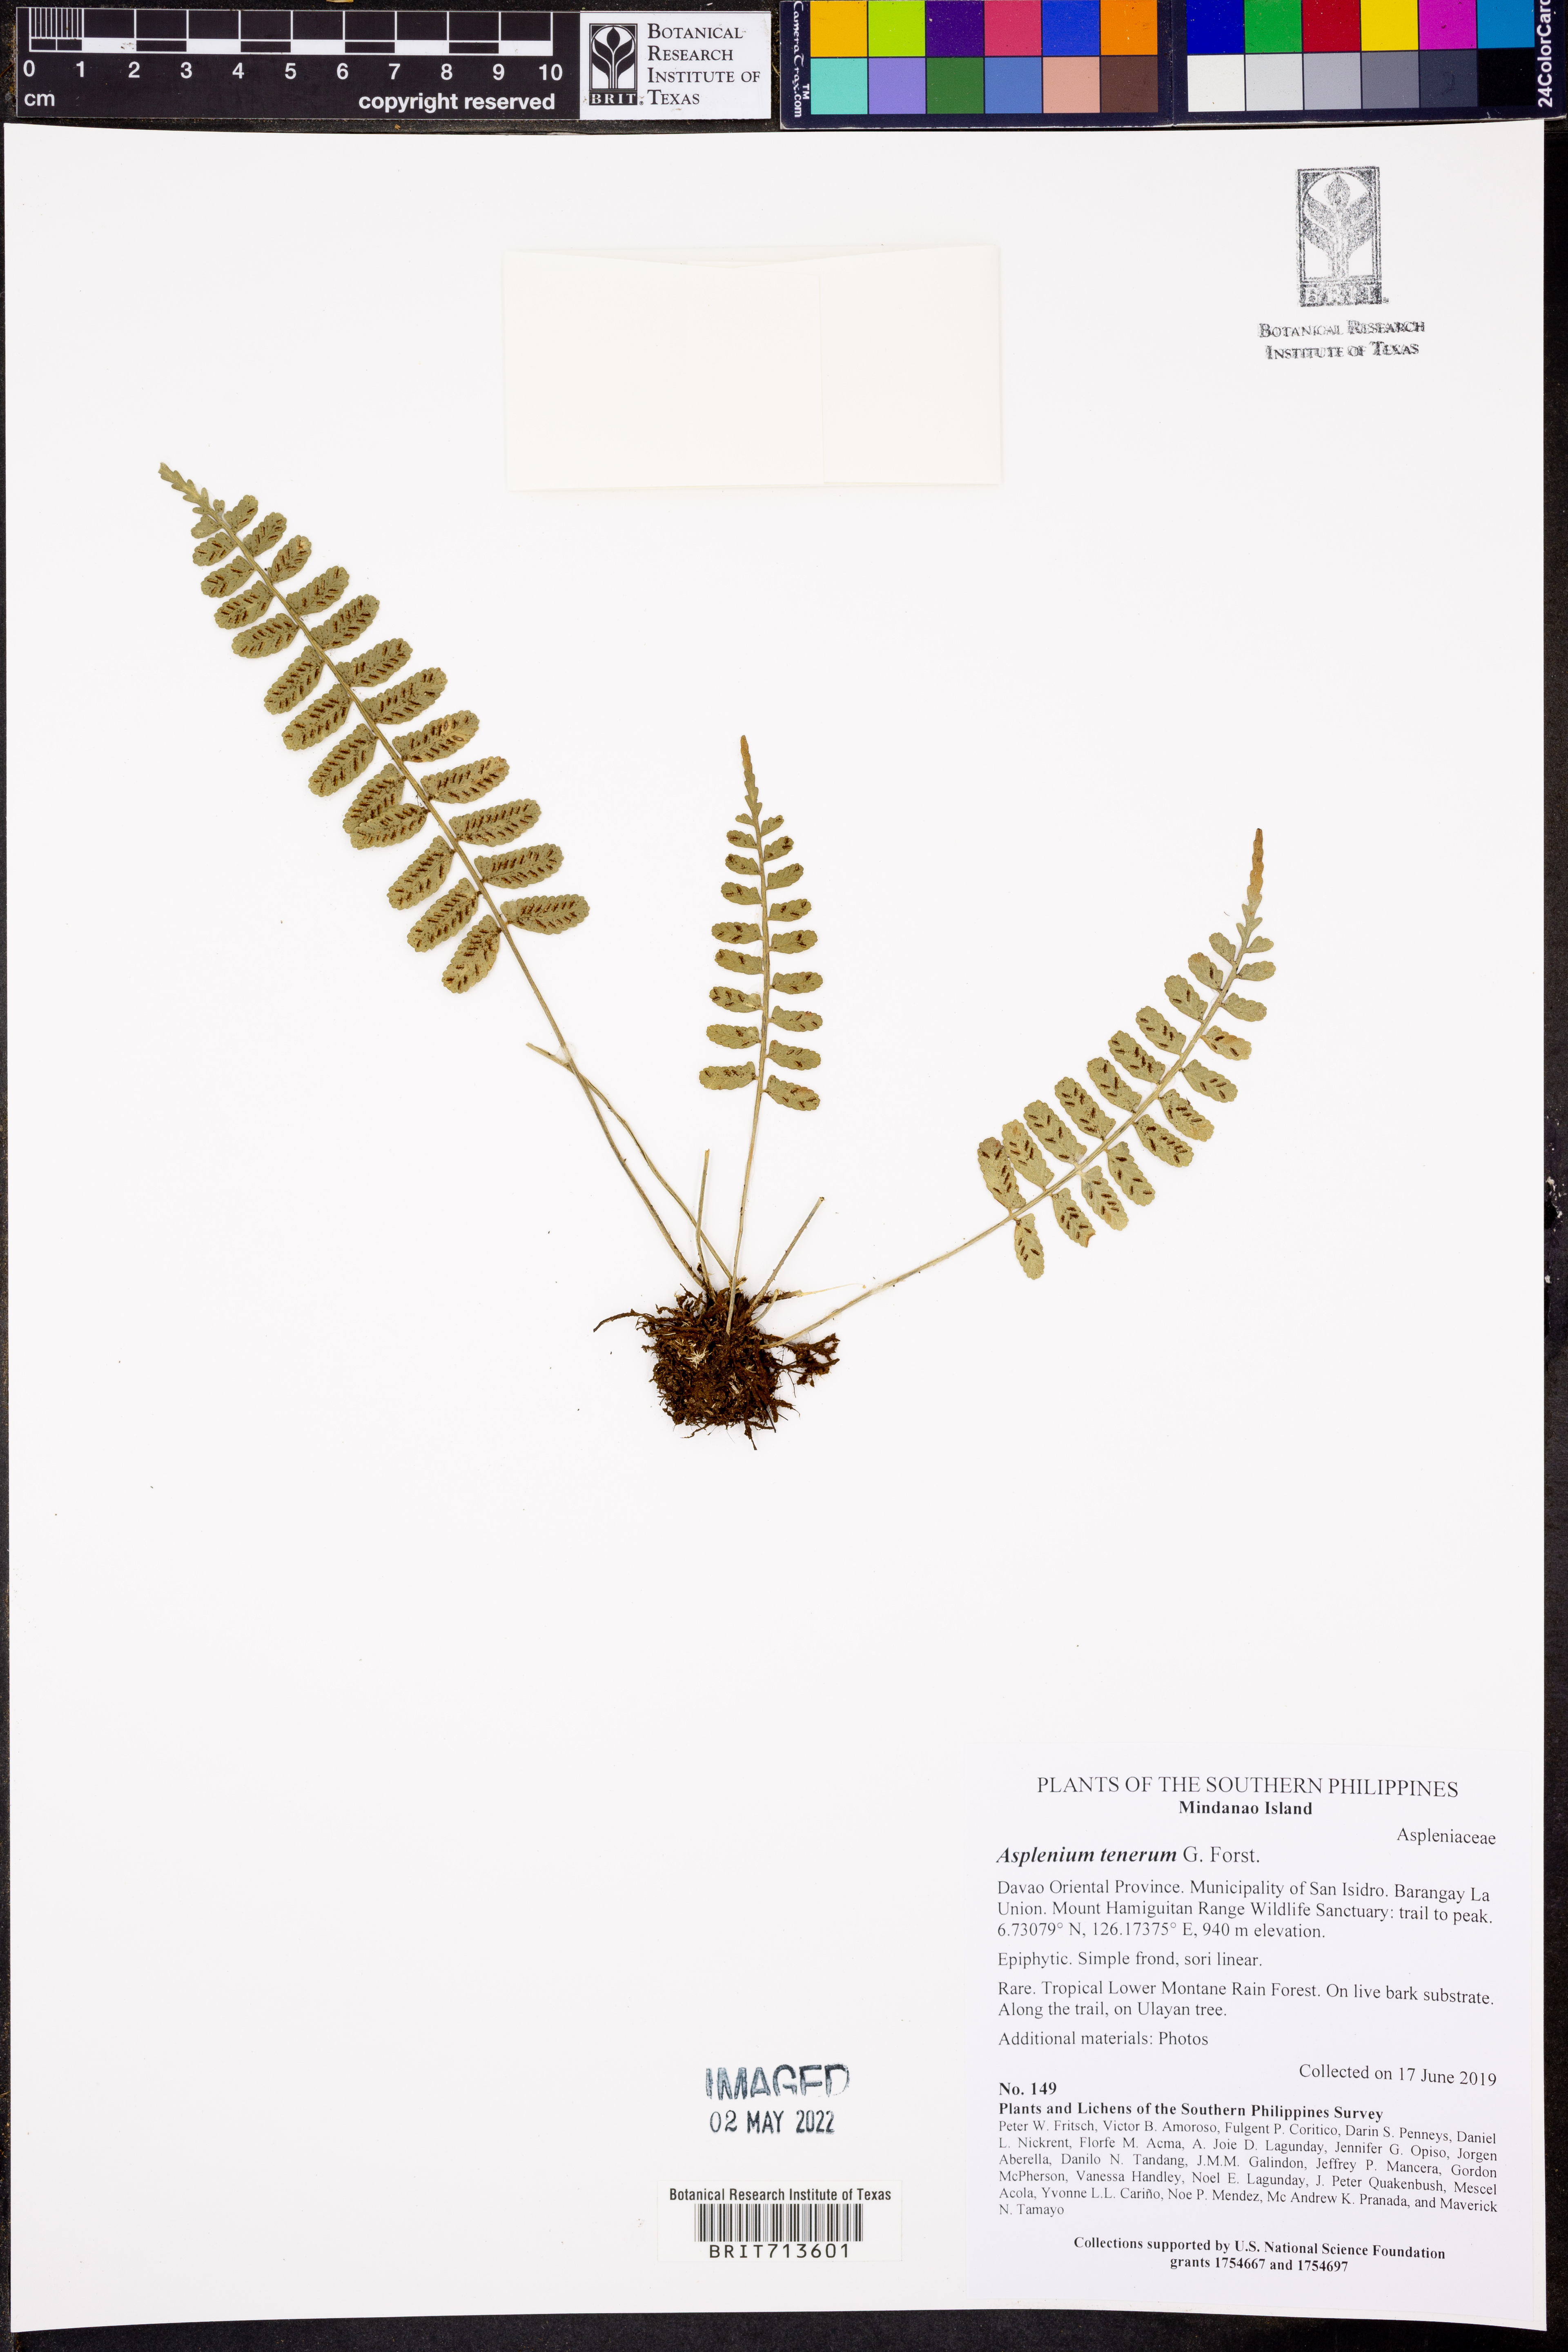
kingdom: Plantae
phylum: Tracheophyta
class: Polypodiopsida
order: Polypodiales
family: Aspleniaceae
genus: Asplenium
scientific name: Asplenium auriculatum
